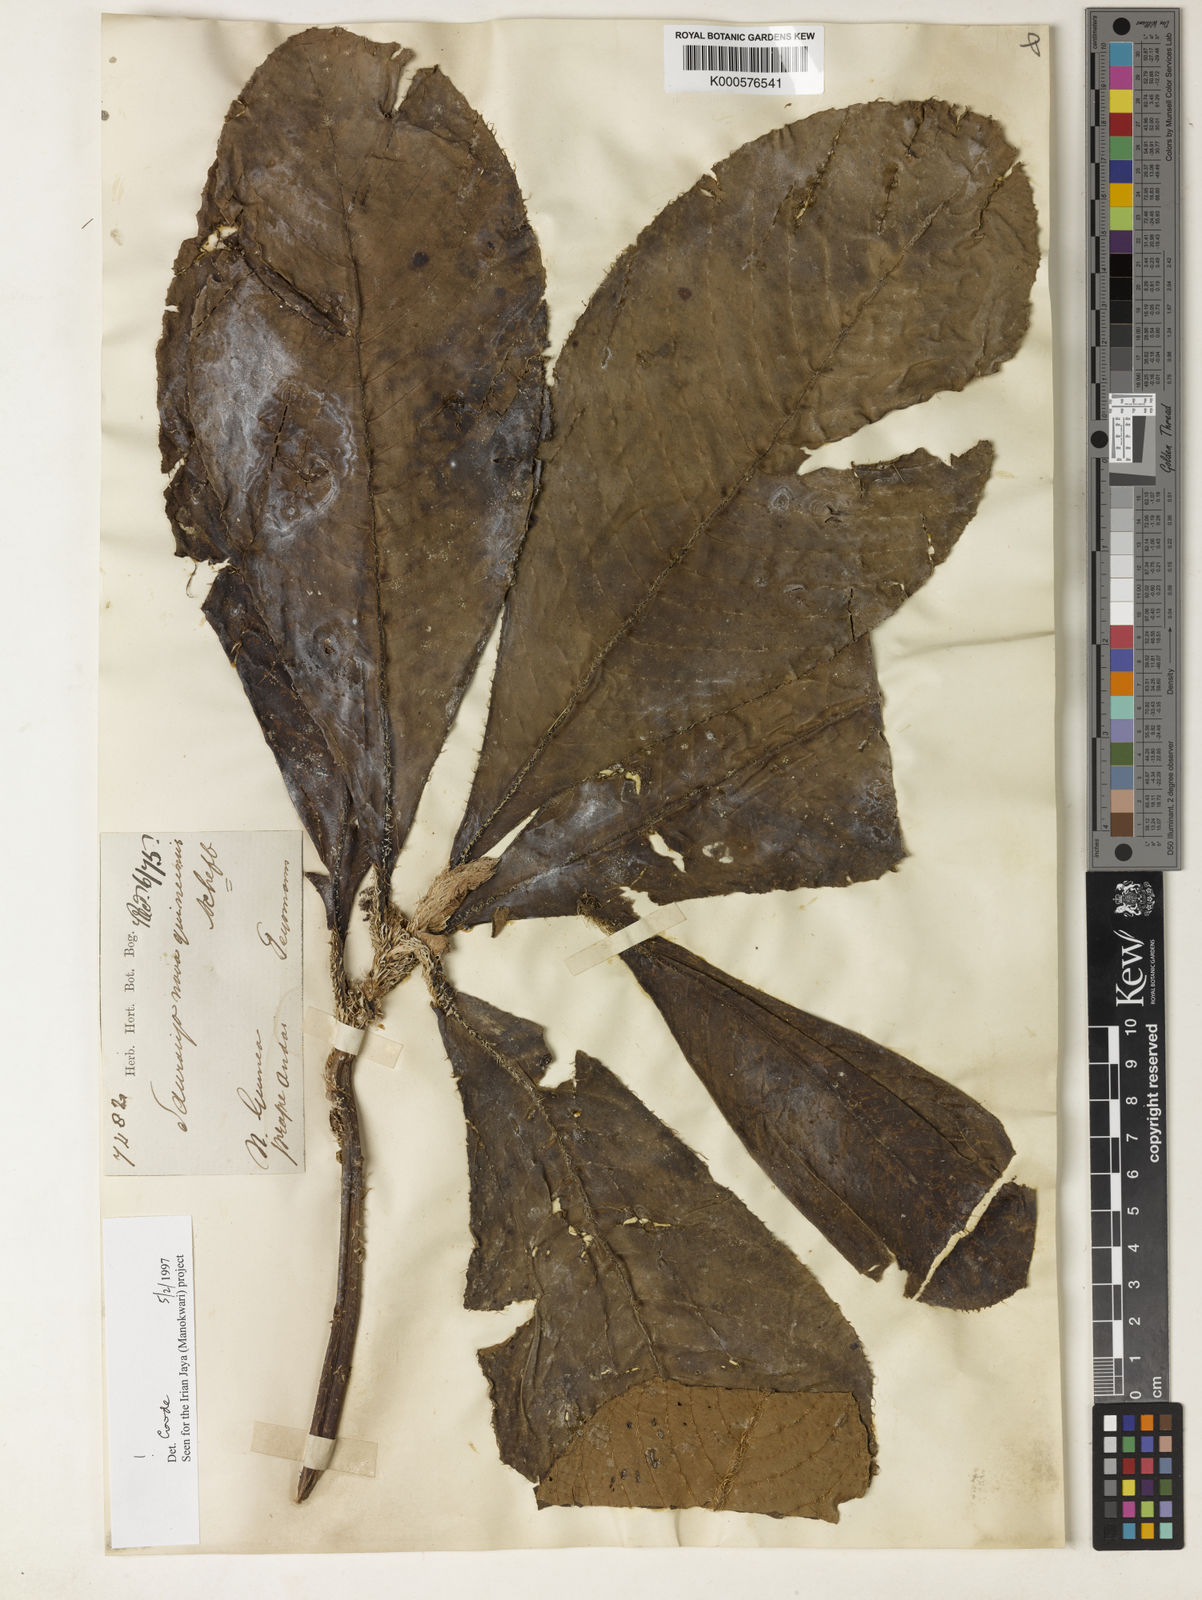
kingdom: Plantae
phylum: Tracheophyta
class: Magnoliopsida
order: Ericales
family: Actinidiaceae
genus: Saurauia
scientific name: Saurauia novoguineensis
